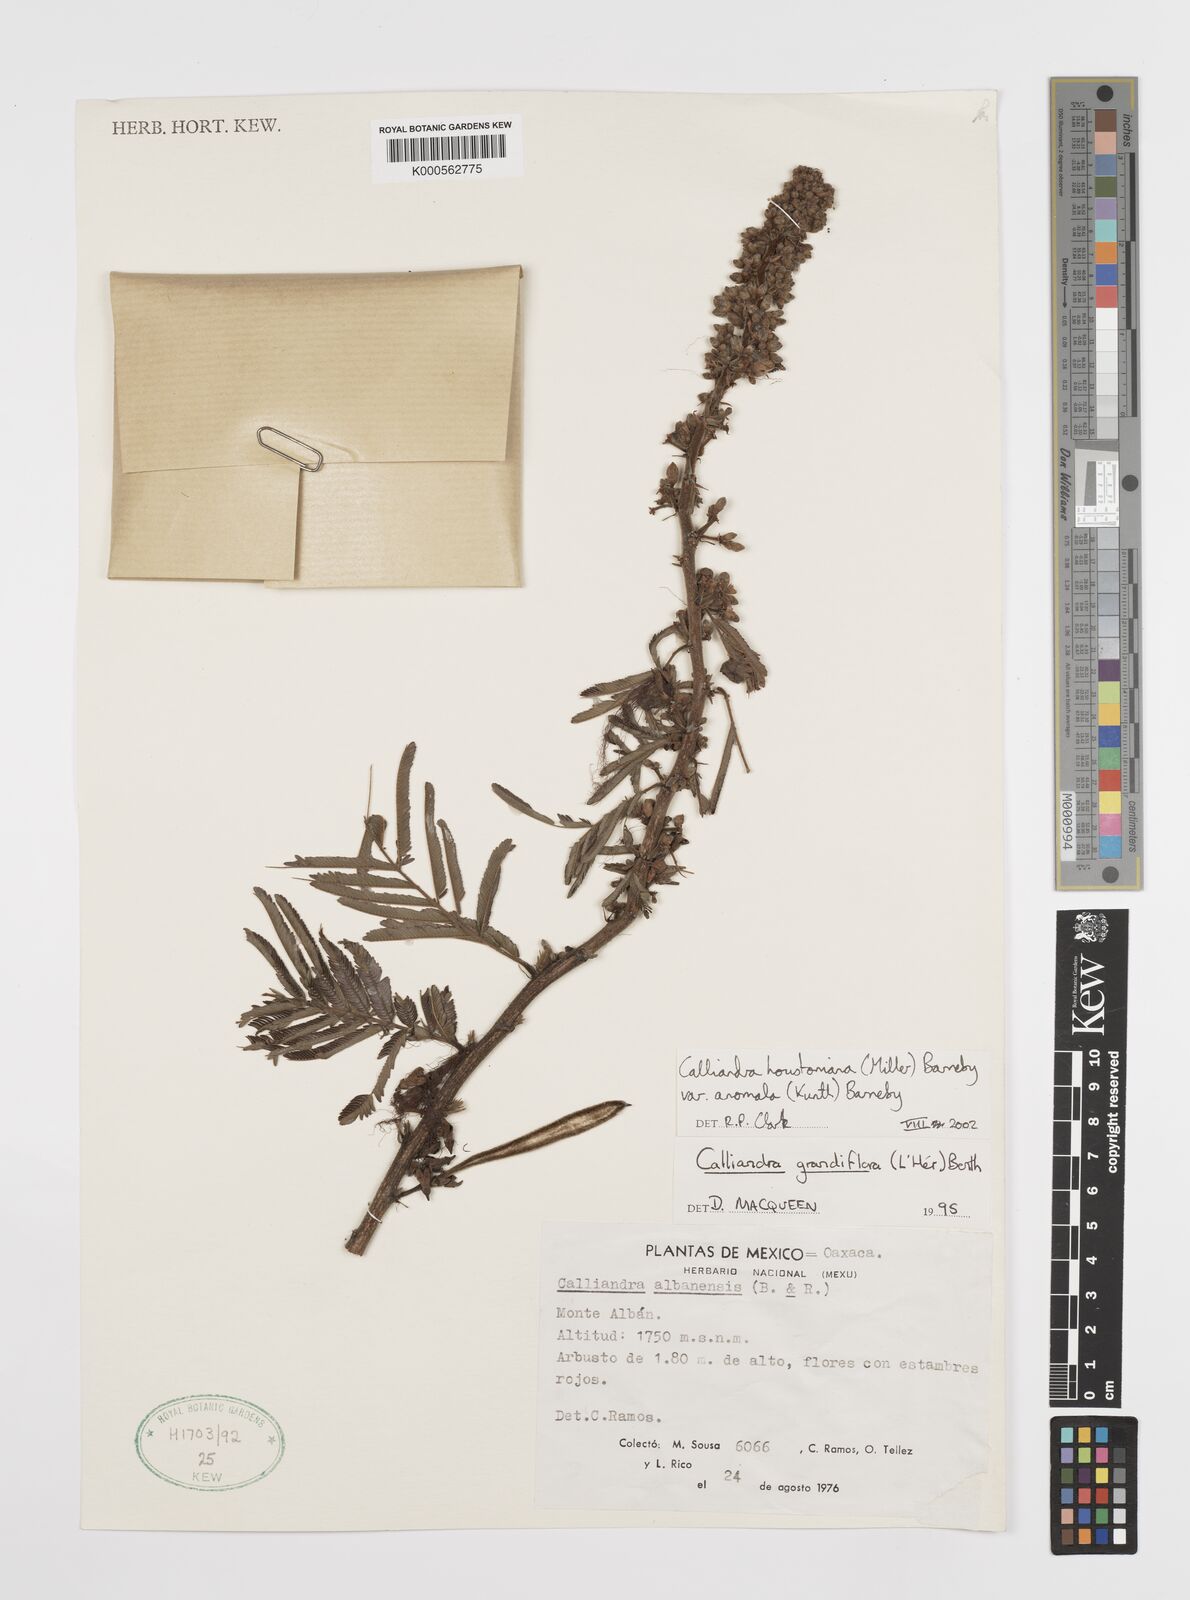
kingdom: Plantae
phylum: Tracheophyta
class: Magnoliopsida
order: Fabales
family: Fabaceae
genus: Calliandra
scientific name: Calliandra houstoniana
